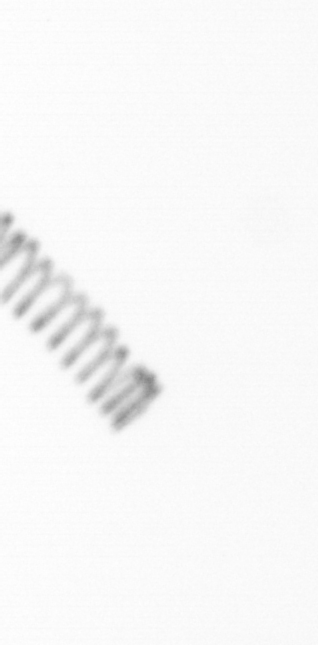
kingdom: Chromista
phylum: Ochrophyta
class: Bacillariophyceae
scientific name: Bacillariophyceae
